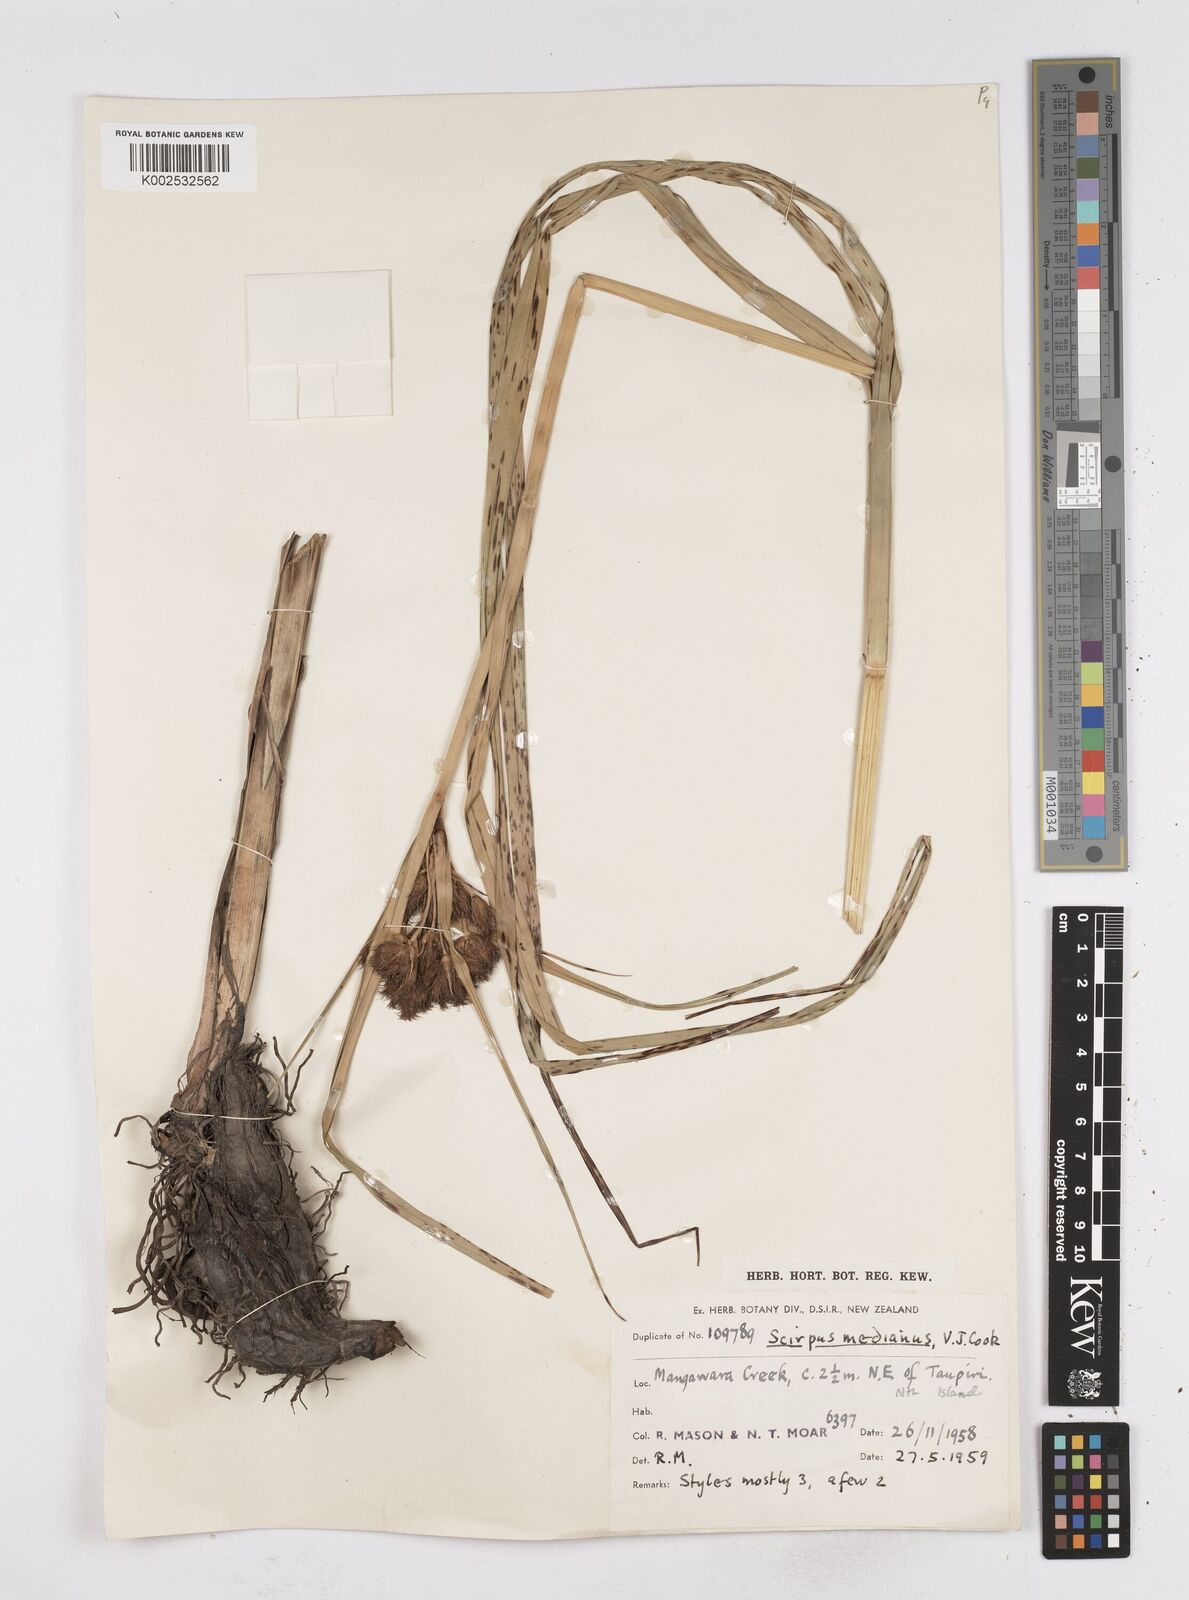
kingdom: Plantae
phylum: Tracheophyta
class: Liliopsida
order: Poales
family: Cyperaceae
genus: Bolboschoenus
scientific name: Bolboschoenus medianus
